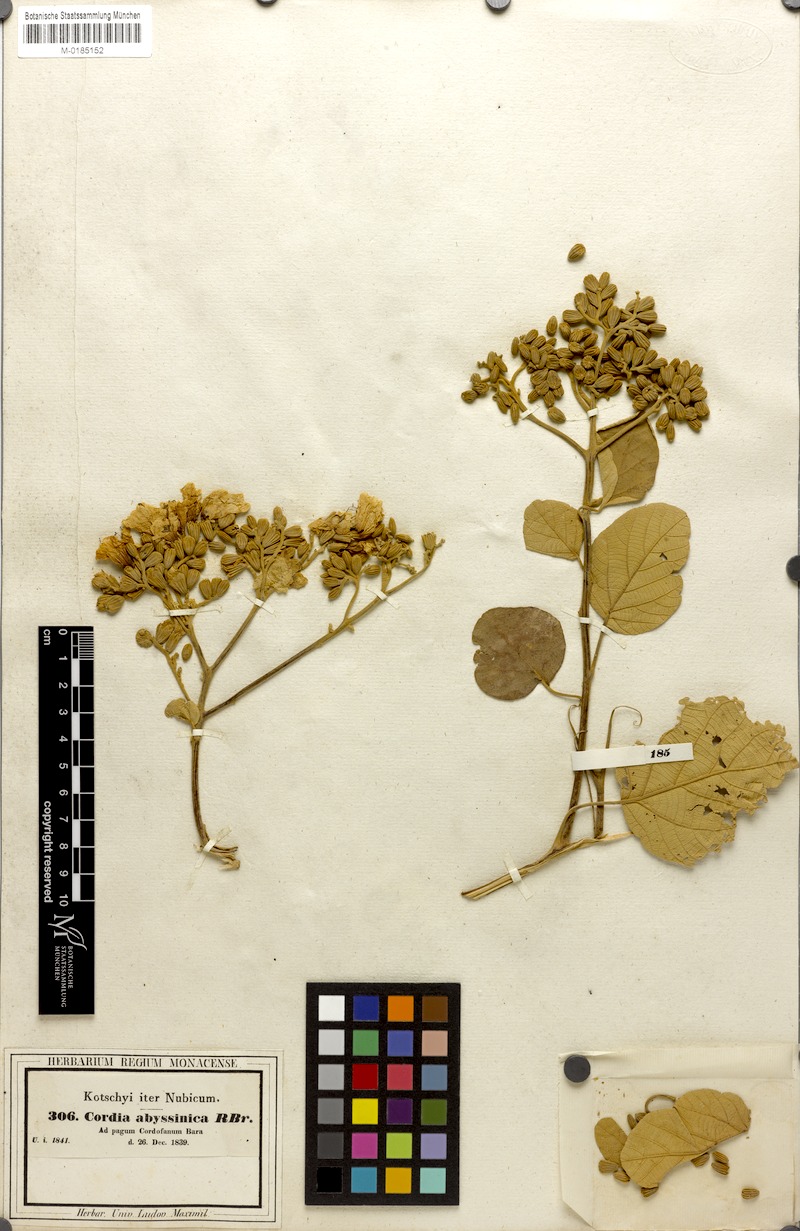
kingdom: Plantae
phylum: Tracheophyta
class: Magnoliopsida
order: Boraginales
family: Cordiaceae
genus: Cordia
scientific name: Cordia africana
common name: Large-leaved cordia
